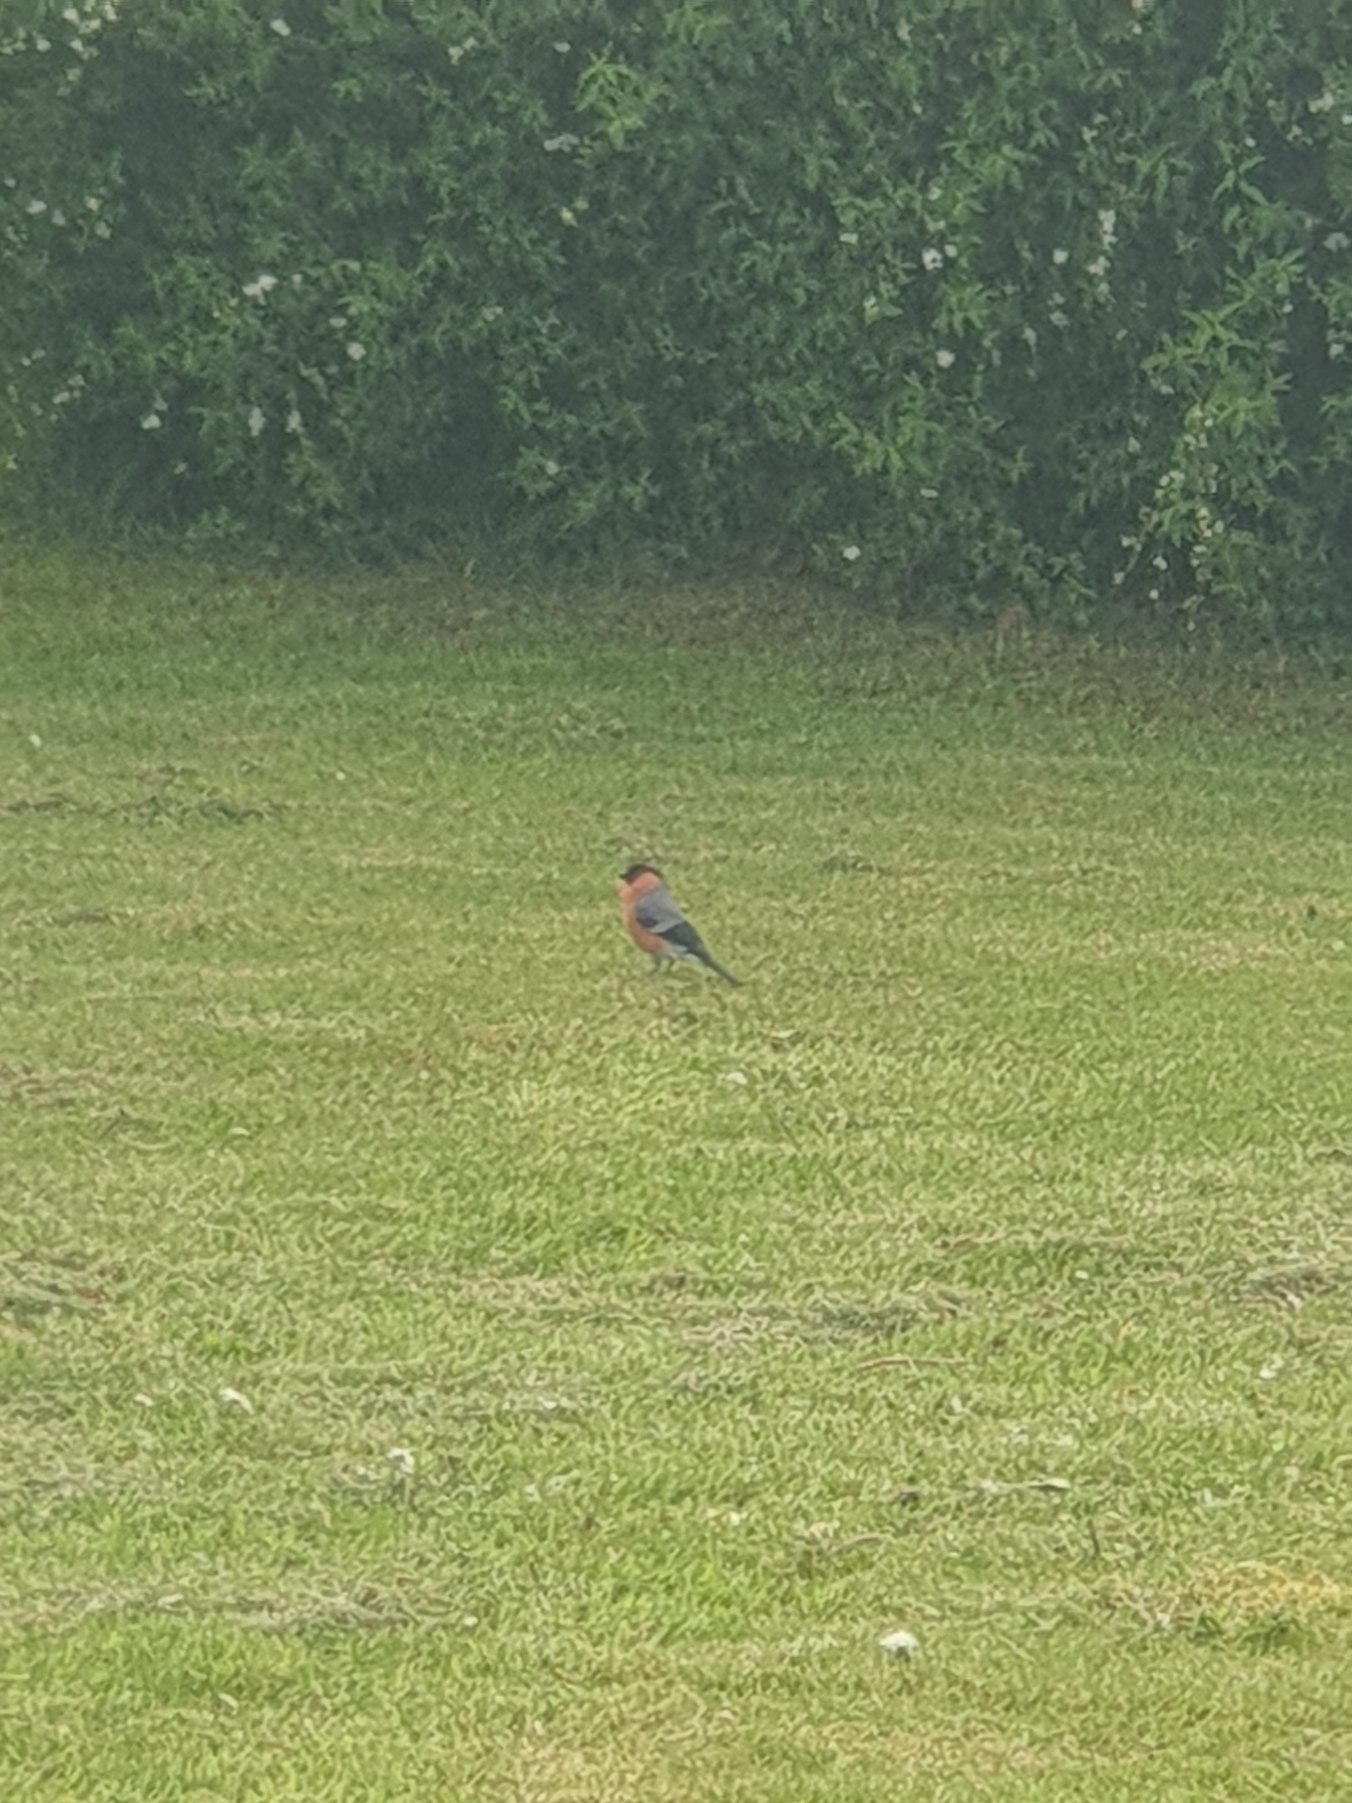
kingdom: Animalia
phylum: Chordata
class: Aves
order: Passeriformes
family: Fringillidae
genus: Pyrrhula
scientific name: Pyrrhula pyrrhula
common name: Dompap
